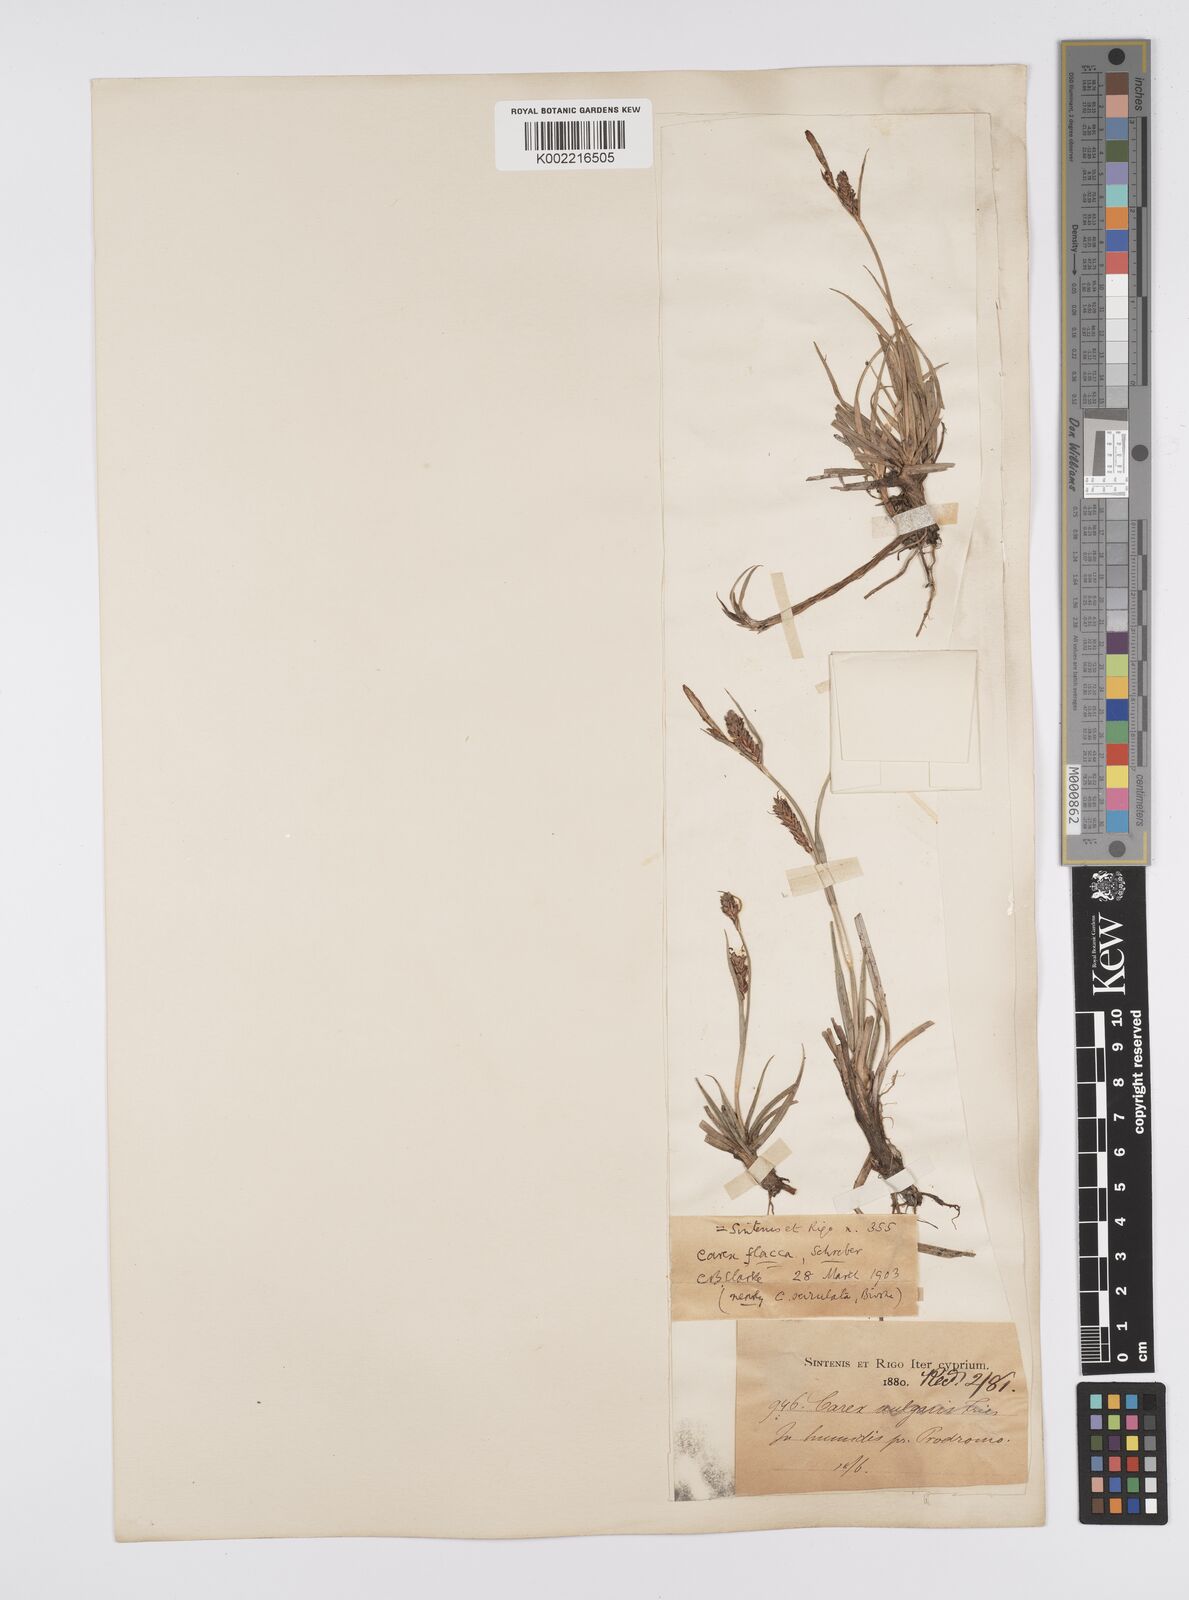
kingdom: Plantae
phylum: Tracheophyta
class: Liliopsida
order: Poales
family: Cyperaceae
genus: Carex
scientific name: Carex flacca
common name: Glaucous sedge
